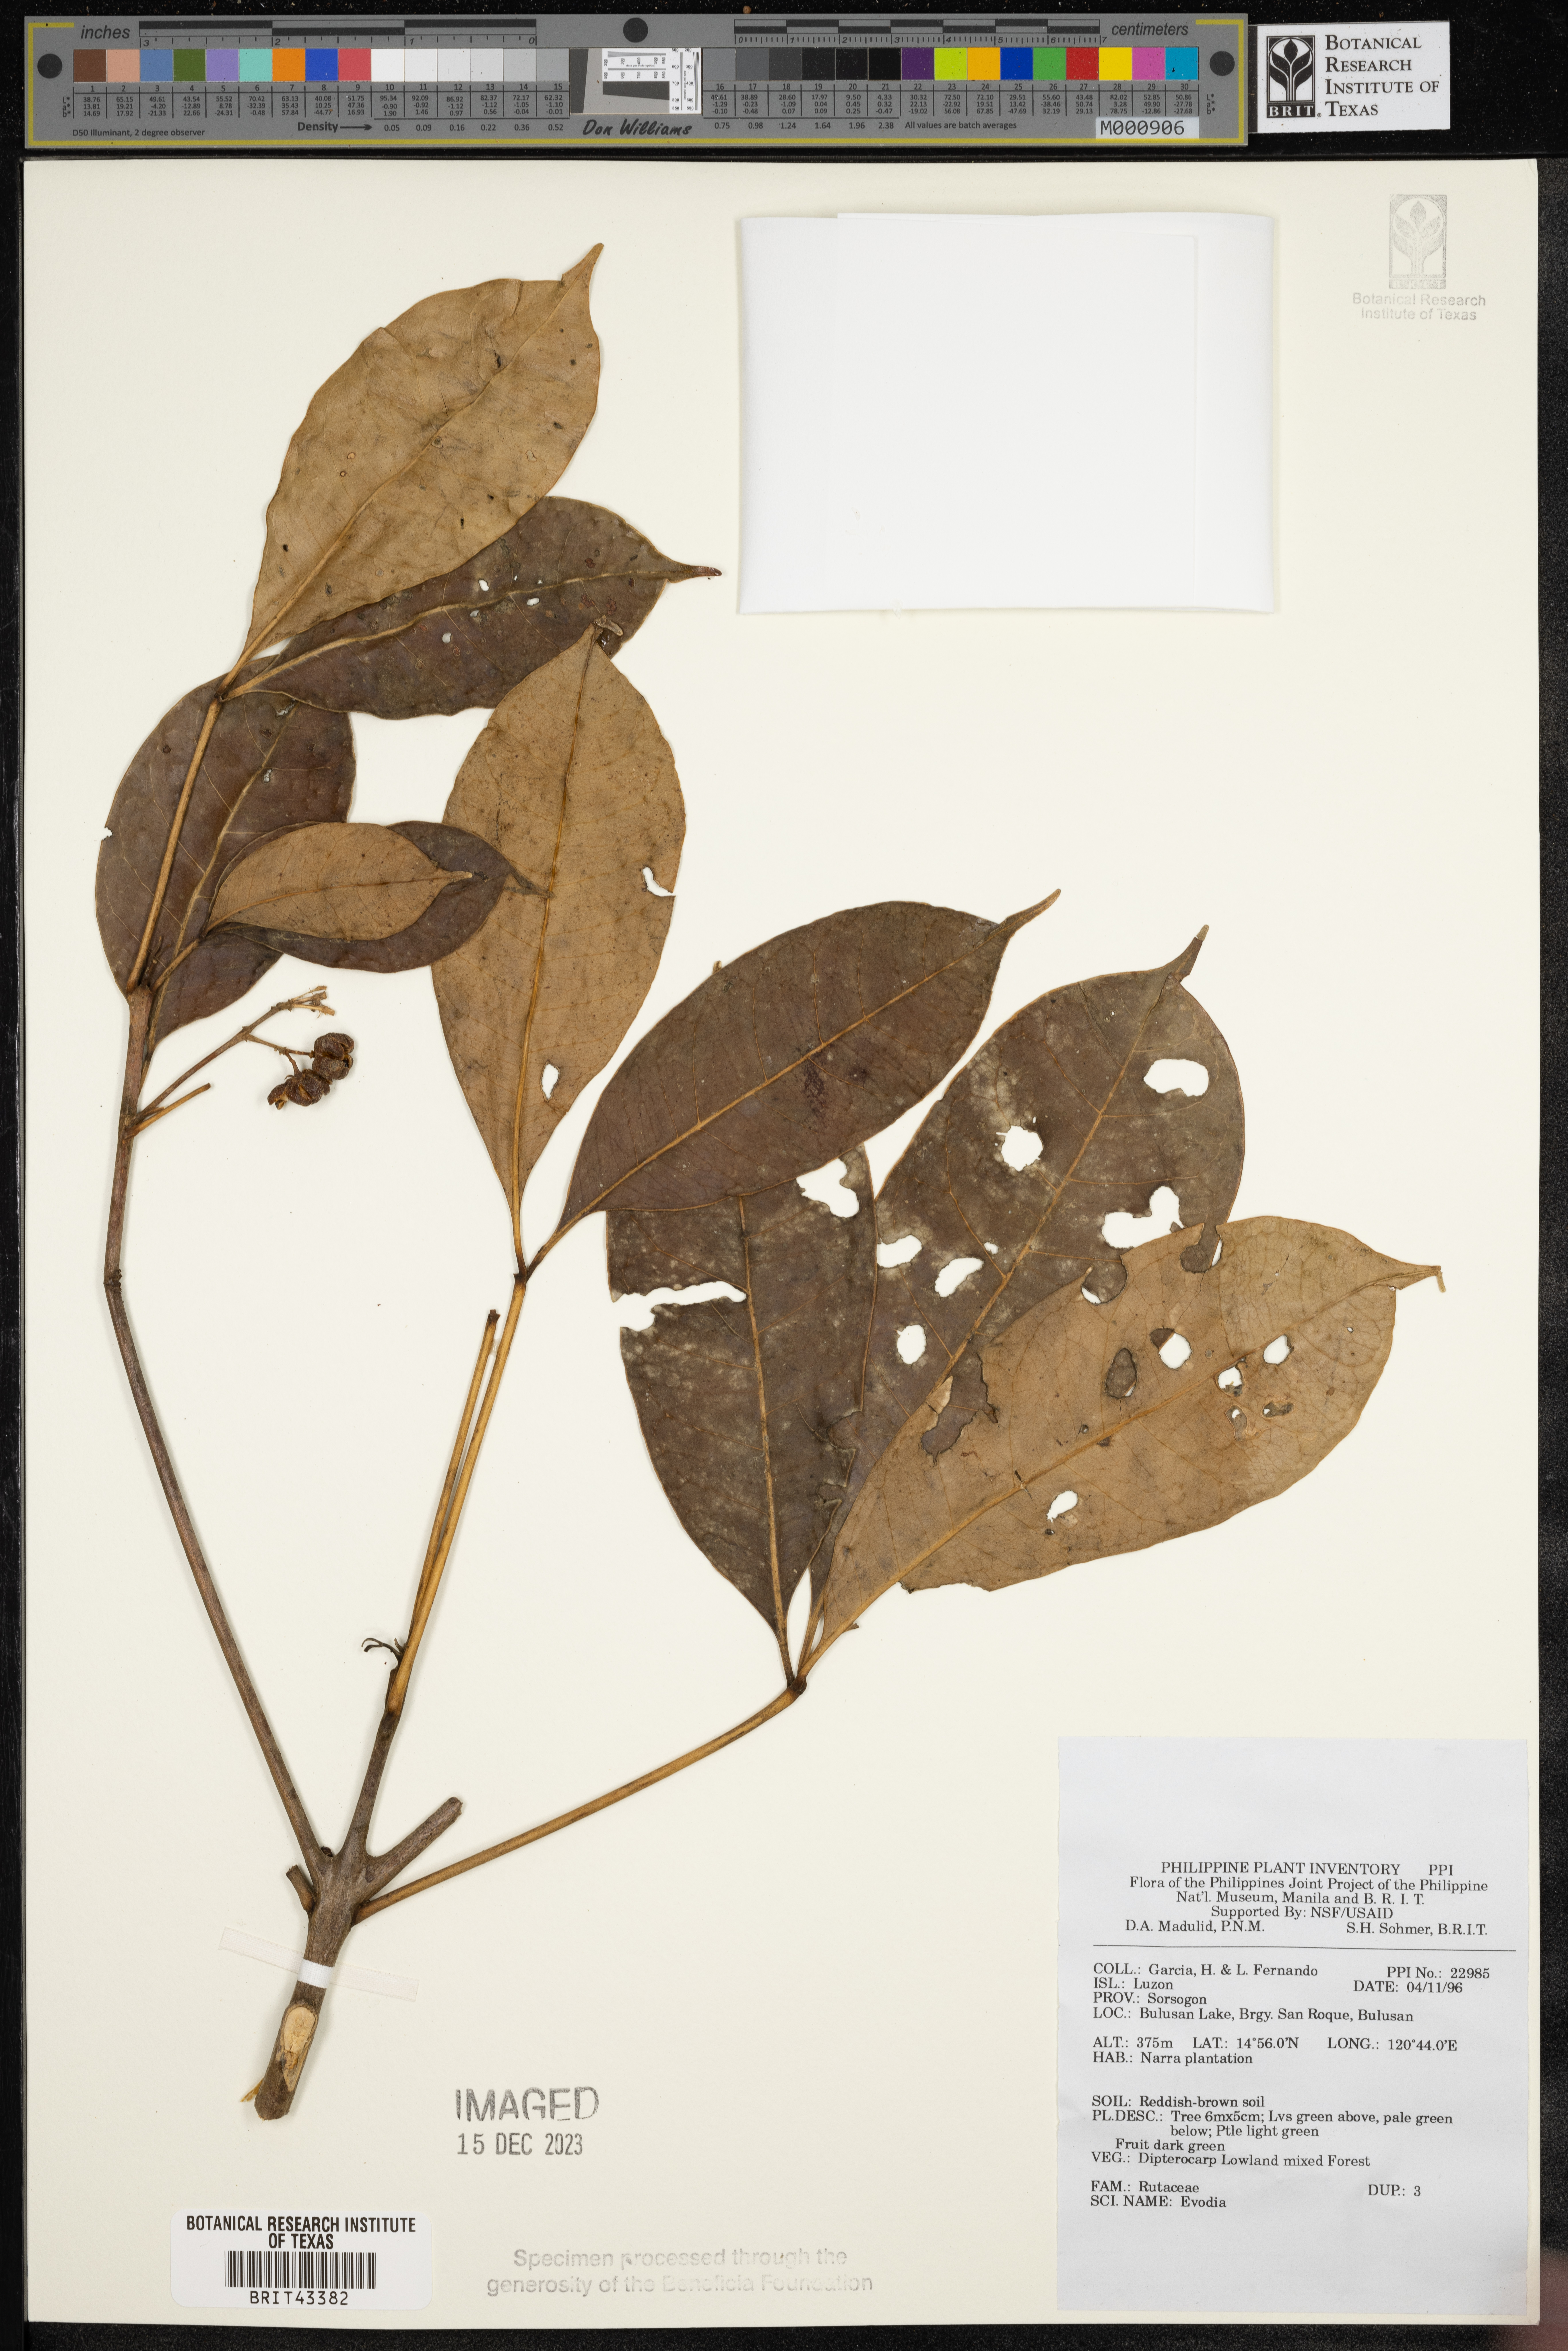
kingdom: Plantae
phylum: Tracheophyta
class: Magnoliopsida
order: Sapindales
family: Rutaceae
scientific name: Rutaceae
